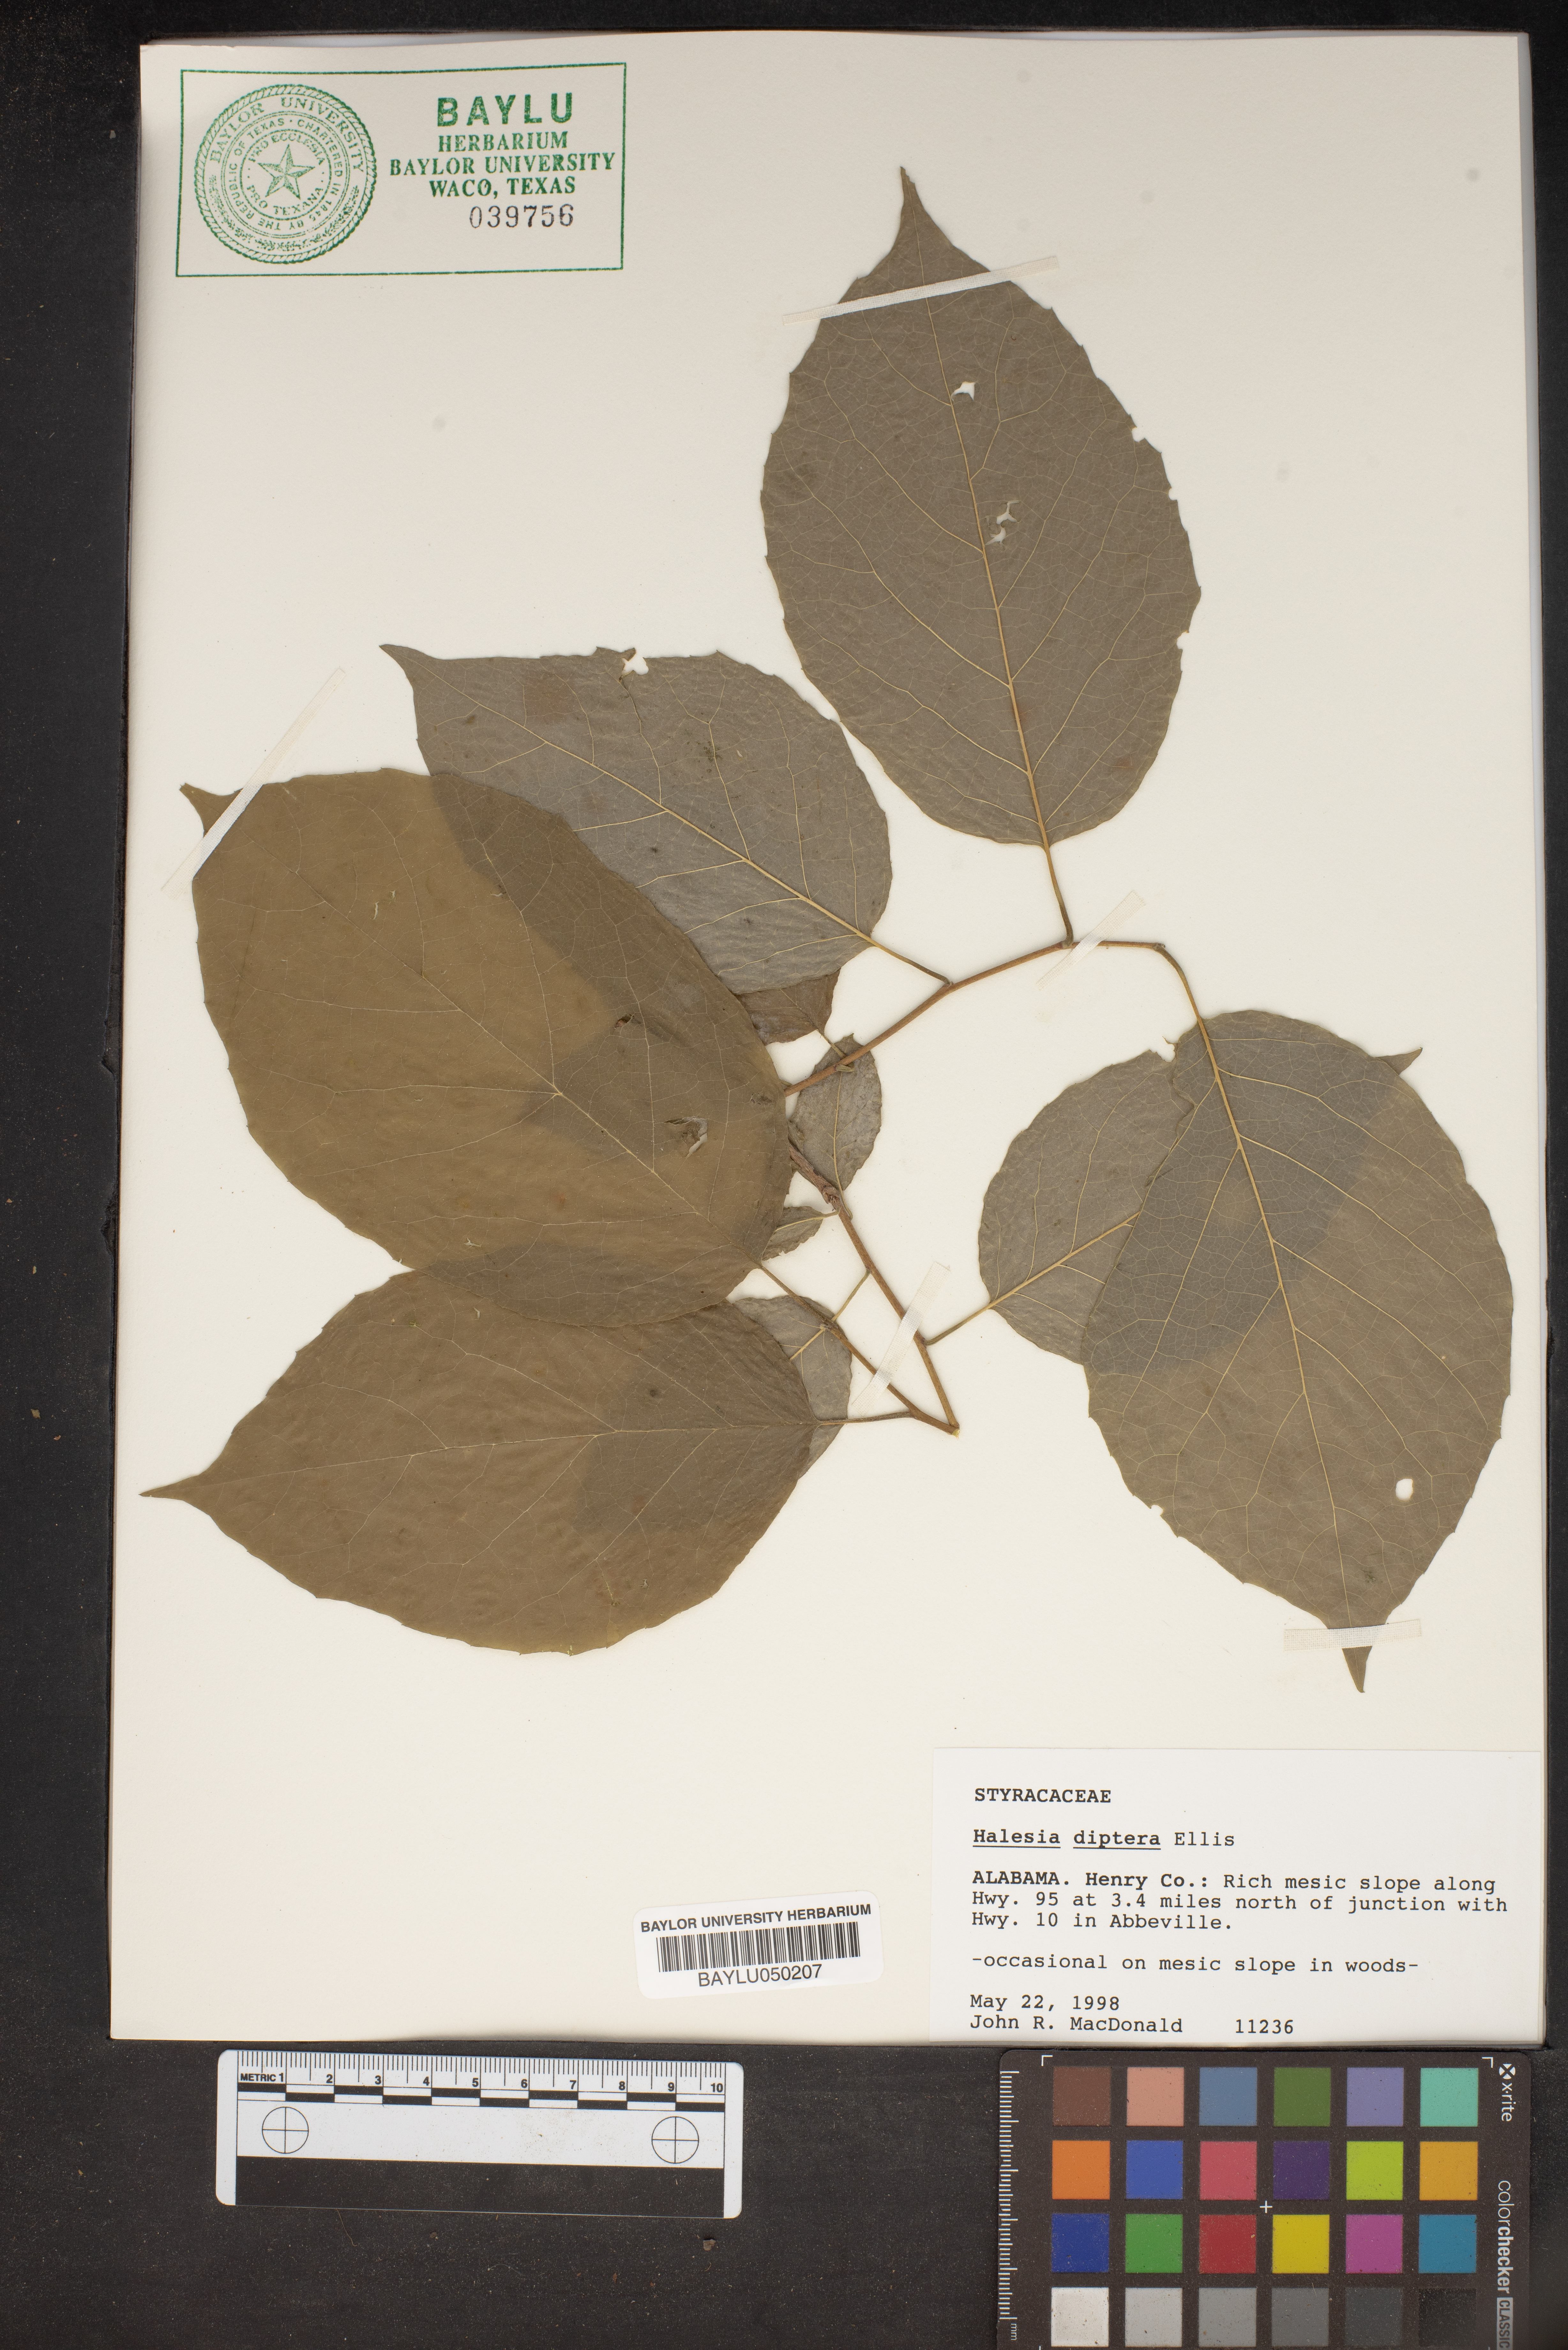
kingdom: Plantae
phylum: Tracheophyta
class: Magnoliopsida
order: Ericales
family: Styracaceae
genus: Halesia
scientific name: Halesia diptera
